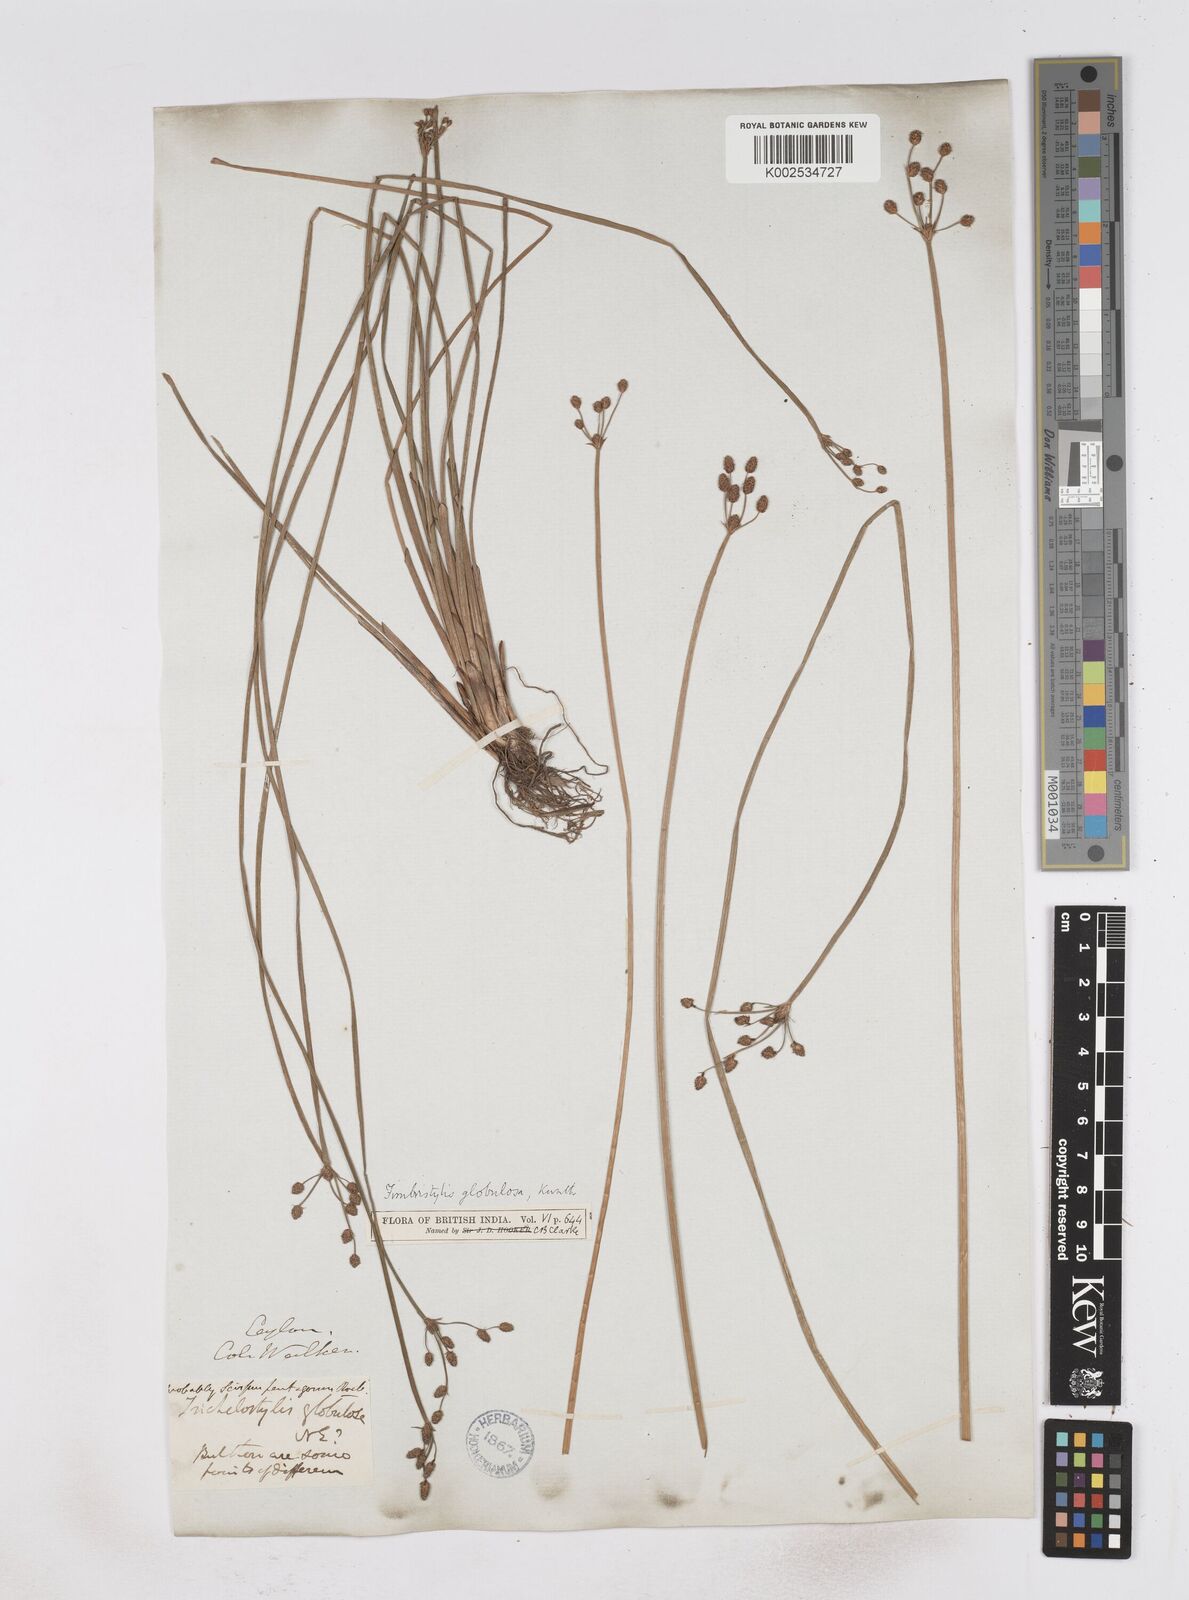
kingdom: Plantae
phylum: Tracheophyta
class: Liliopsida
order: Poales
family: Cyperaceae
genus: Fimbristylis
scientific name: Fimbristylis umbellaris
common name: Globular fimbristylis
